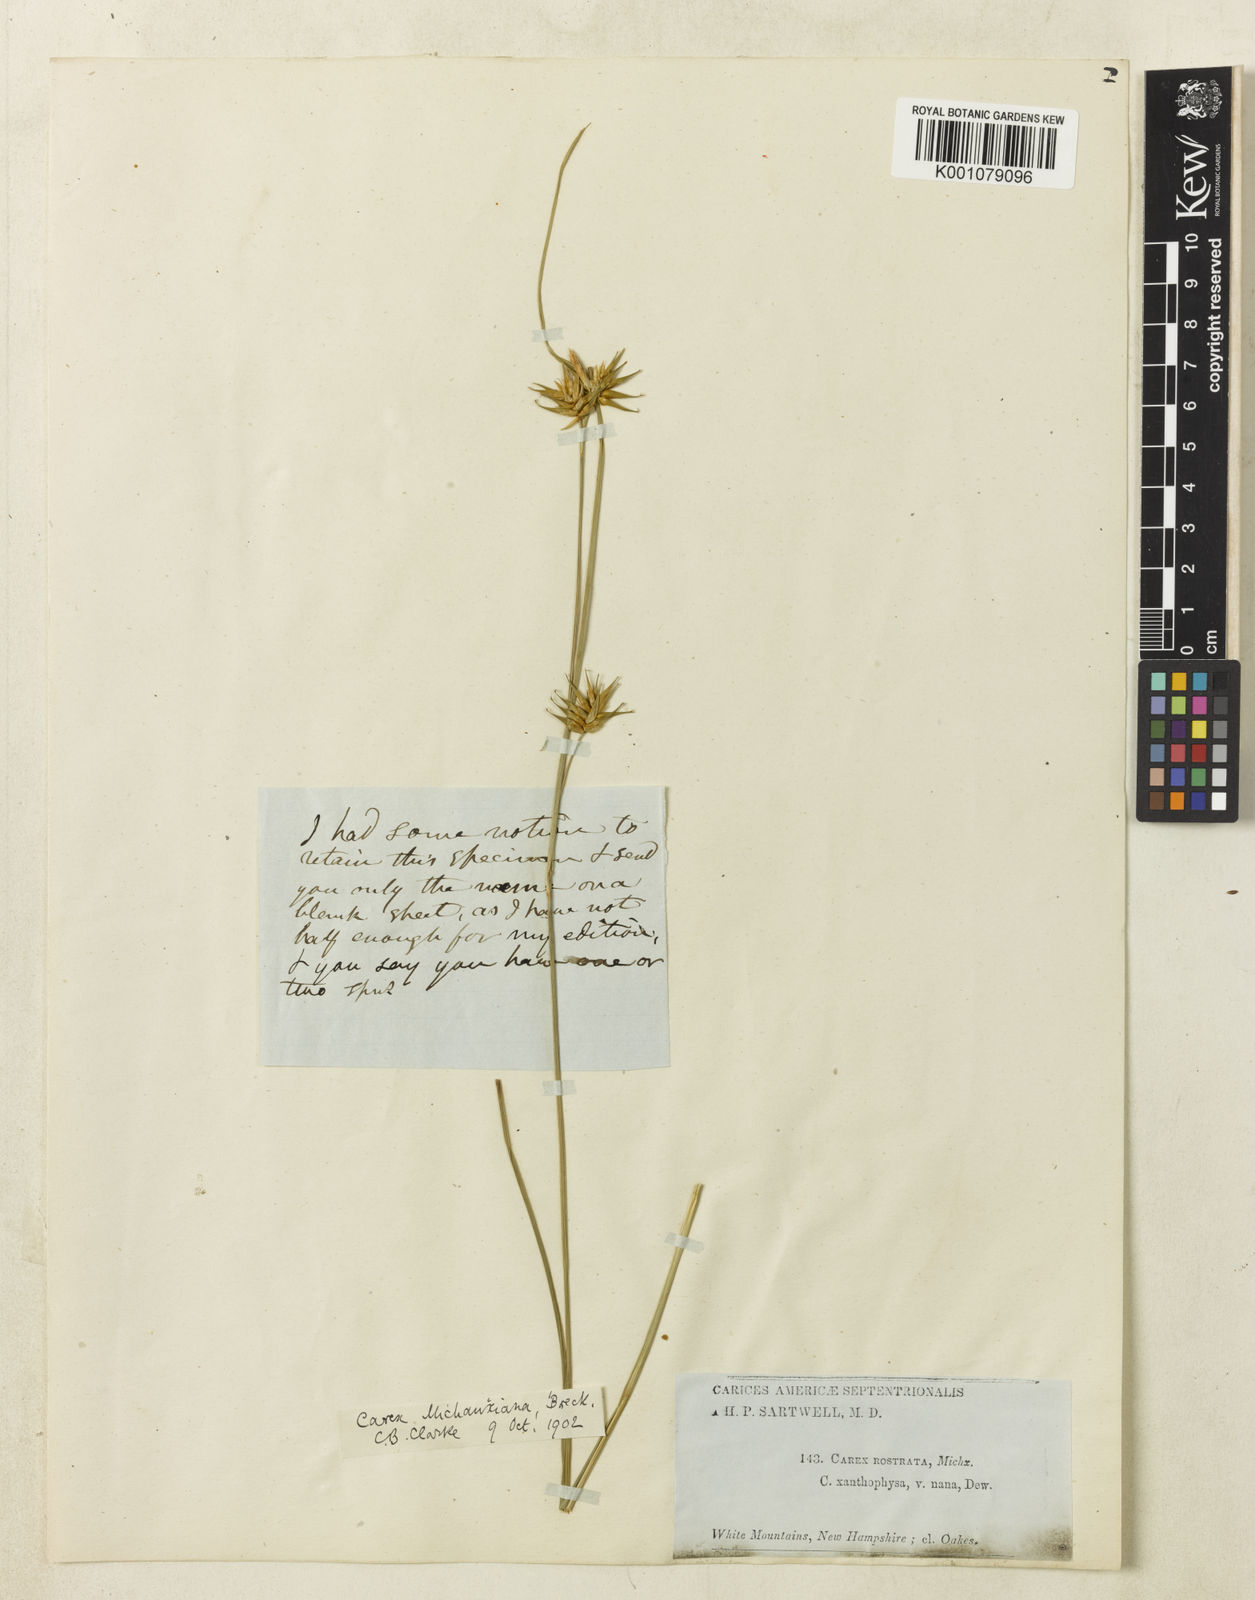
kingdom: Plantae
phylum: Tracheophyta
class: Liliopsida
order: Poales
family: Cyperaceae
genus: Carex
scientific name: Carex michauxiana
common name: Michaux's sedge
